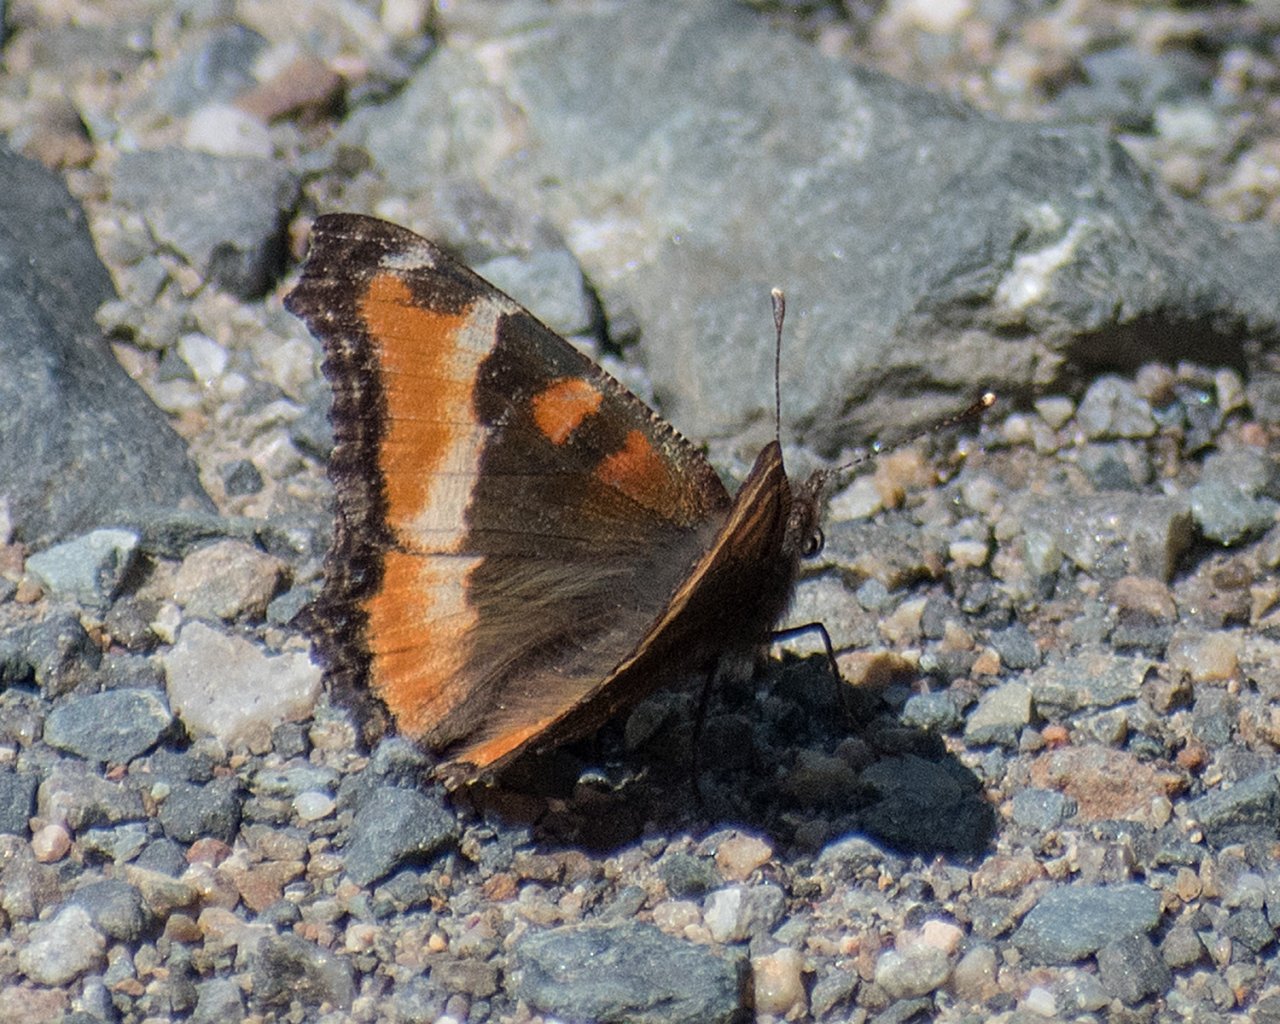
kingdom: Animalia
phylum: Arthropoda
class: Insecta
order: Lepidoptera
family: Nymphalidae
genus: Aglais
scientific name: Aglais milberti
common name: Milbert's Tortoiseshell
